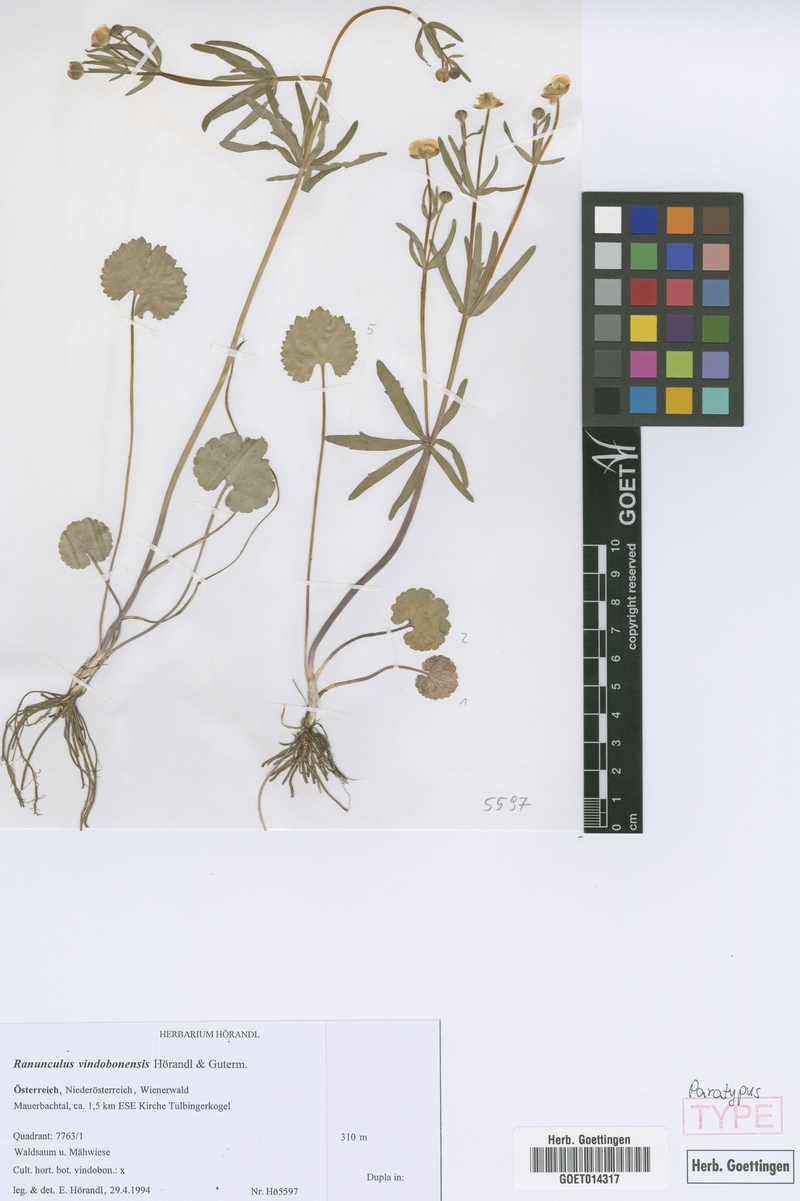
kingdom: Plantae
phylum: Tracheophyta
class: Magnoliopsida
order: Ranunculales
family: Ranunculaceae
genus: Ranunculus
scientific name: Ranunculus vindobonensis
